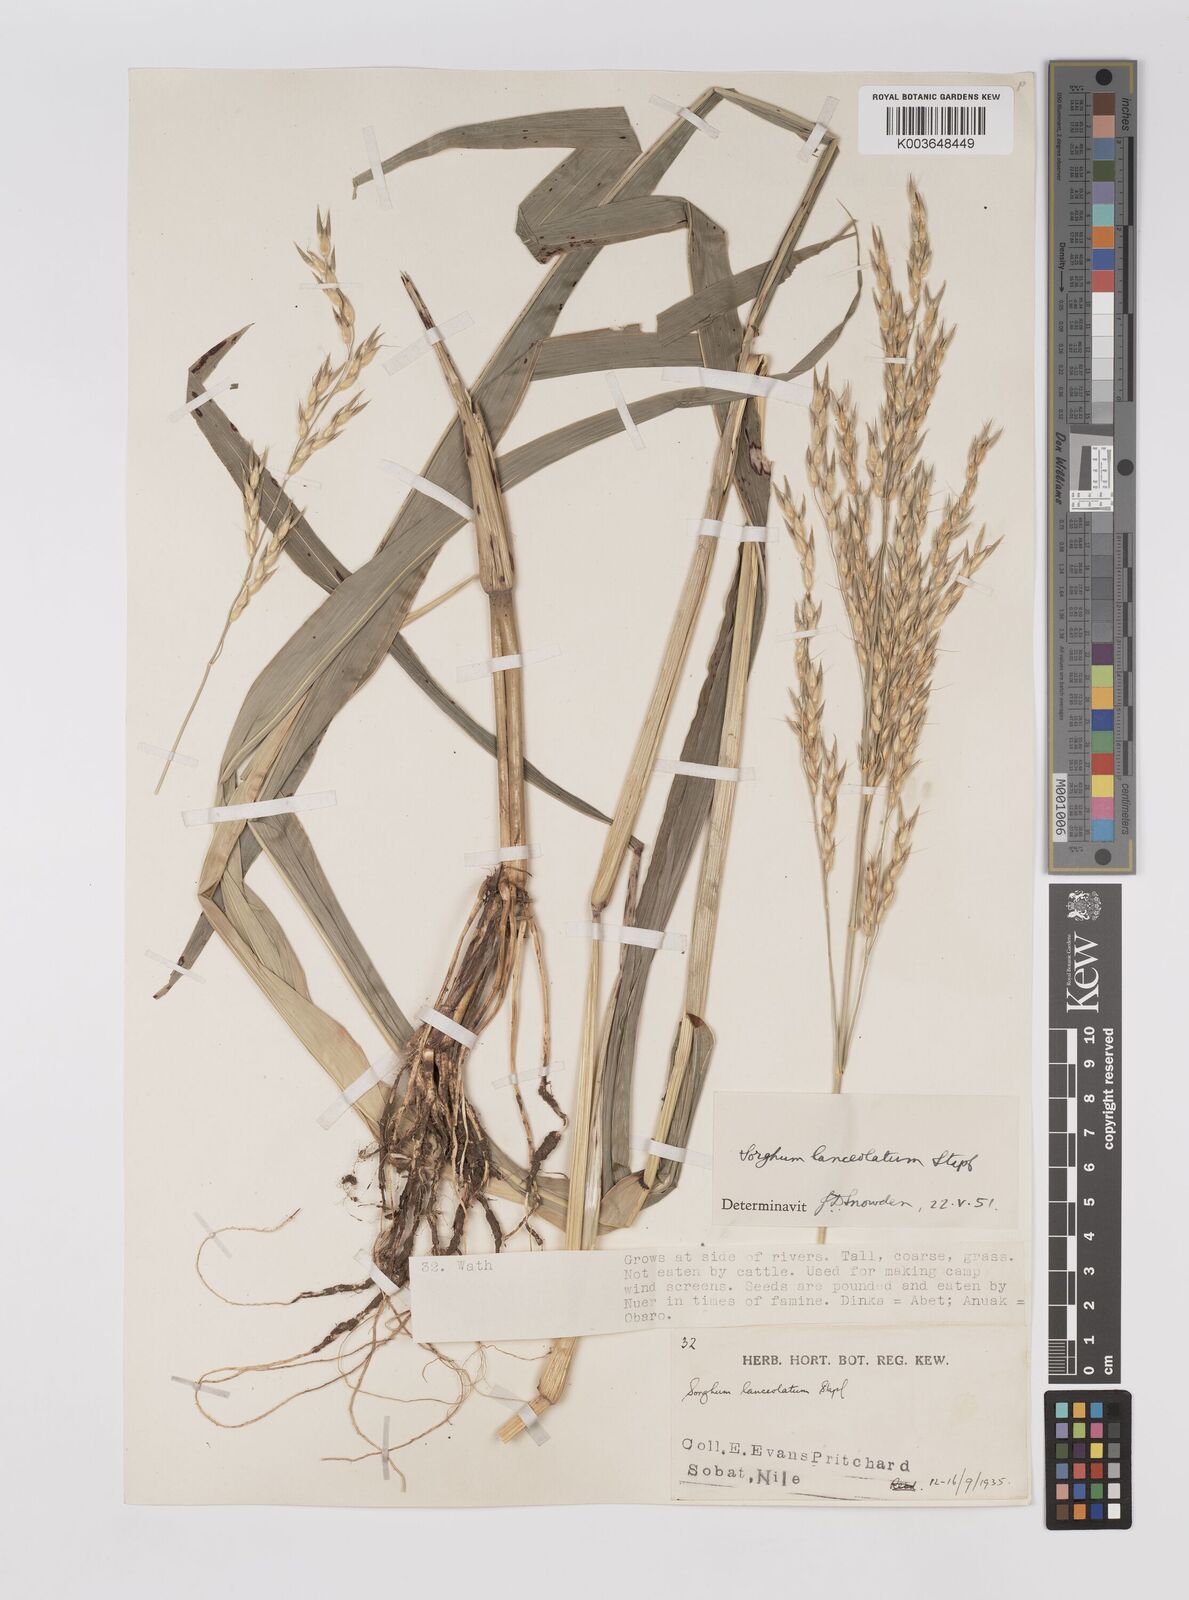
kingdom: Plantae
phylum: Tracheophyta
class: Liliopsida
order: Poales
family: Poaceae
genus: Sorghum
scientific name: Sorghum arundinaceum
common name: Sorghum
